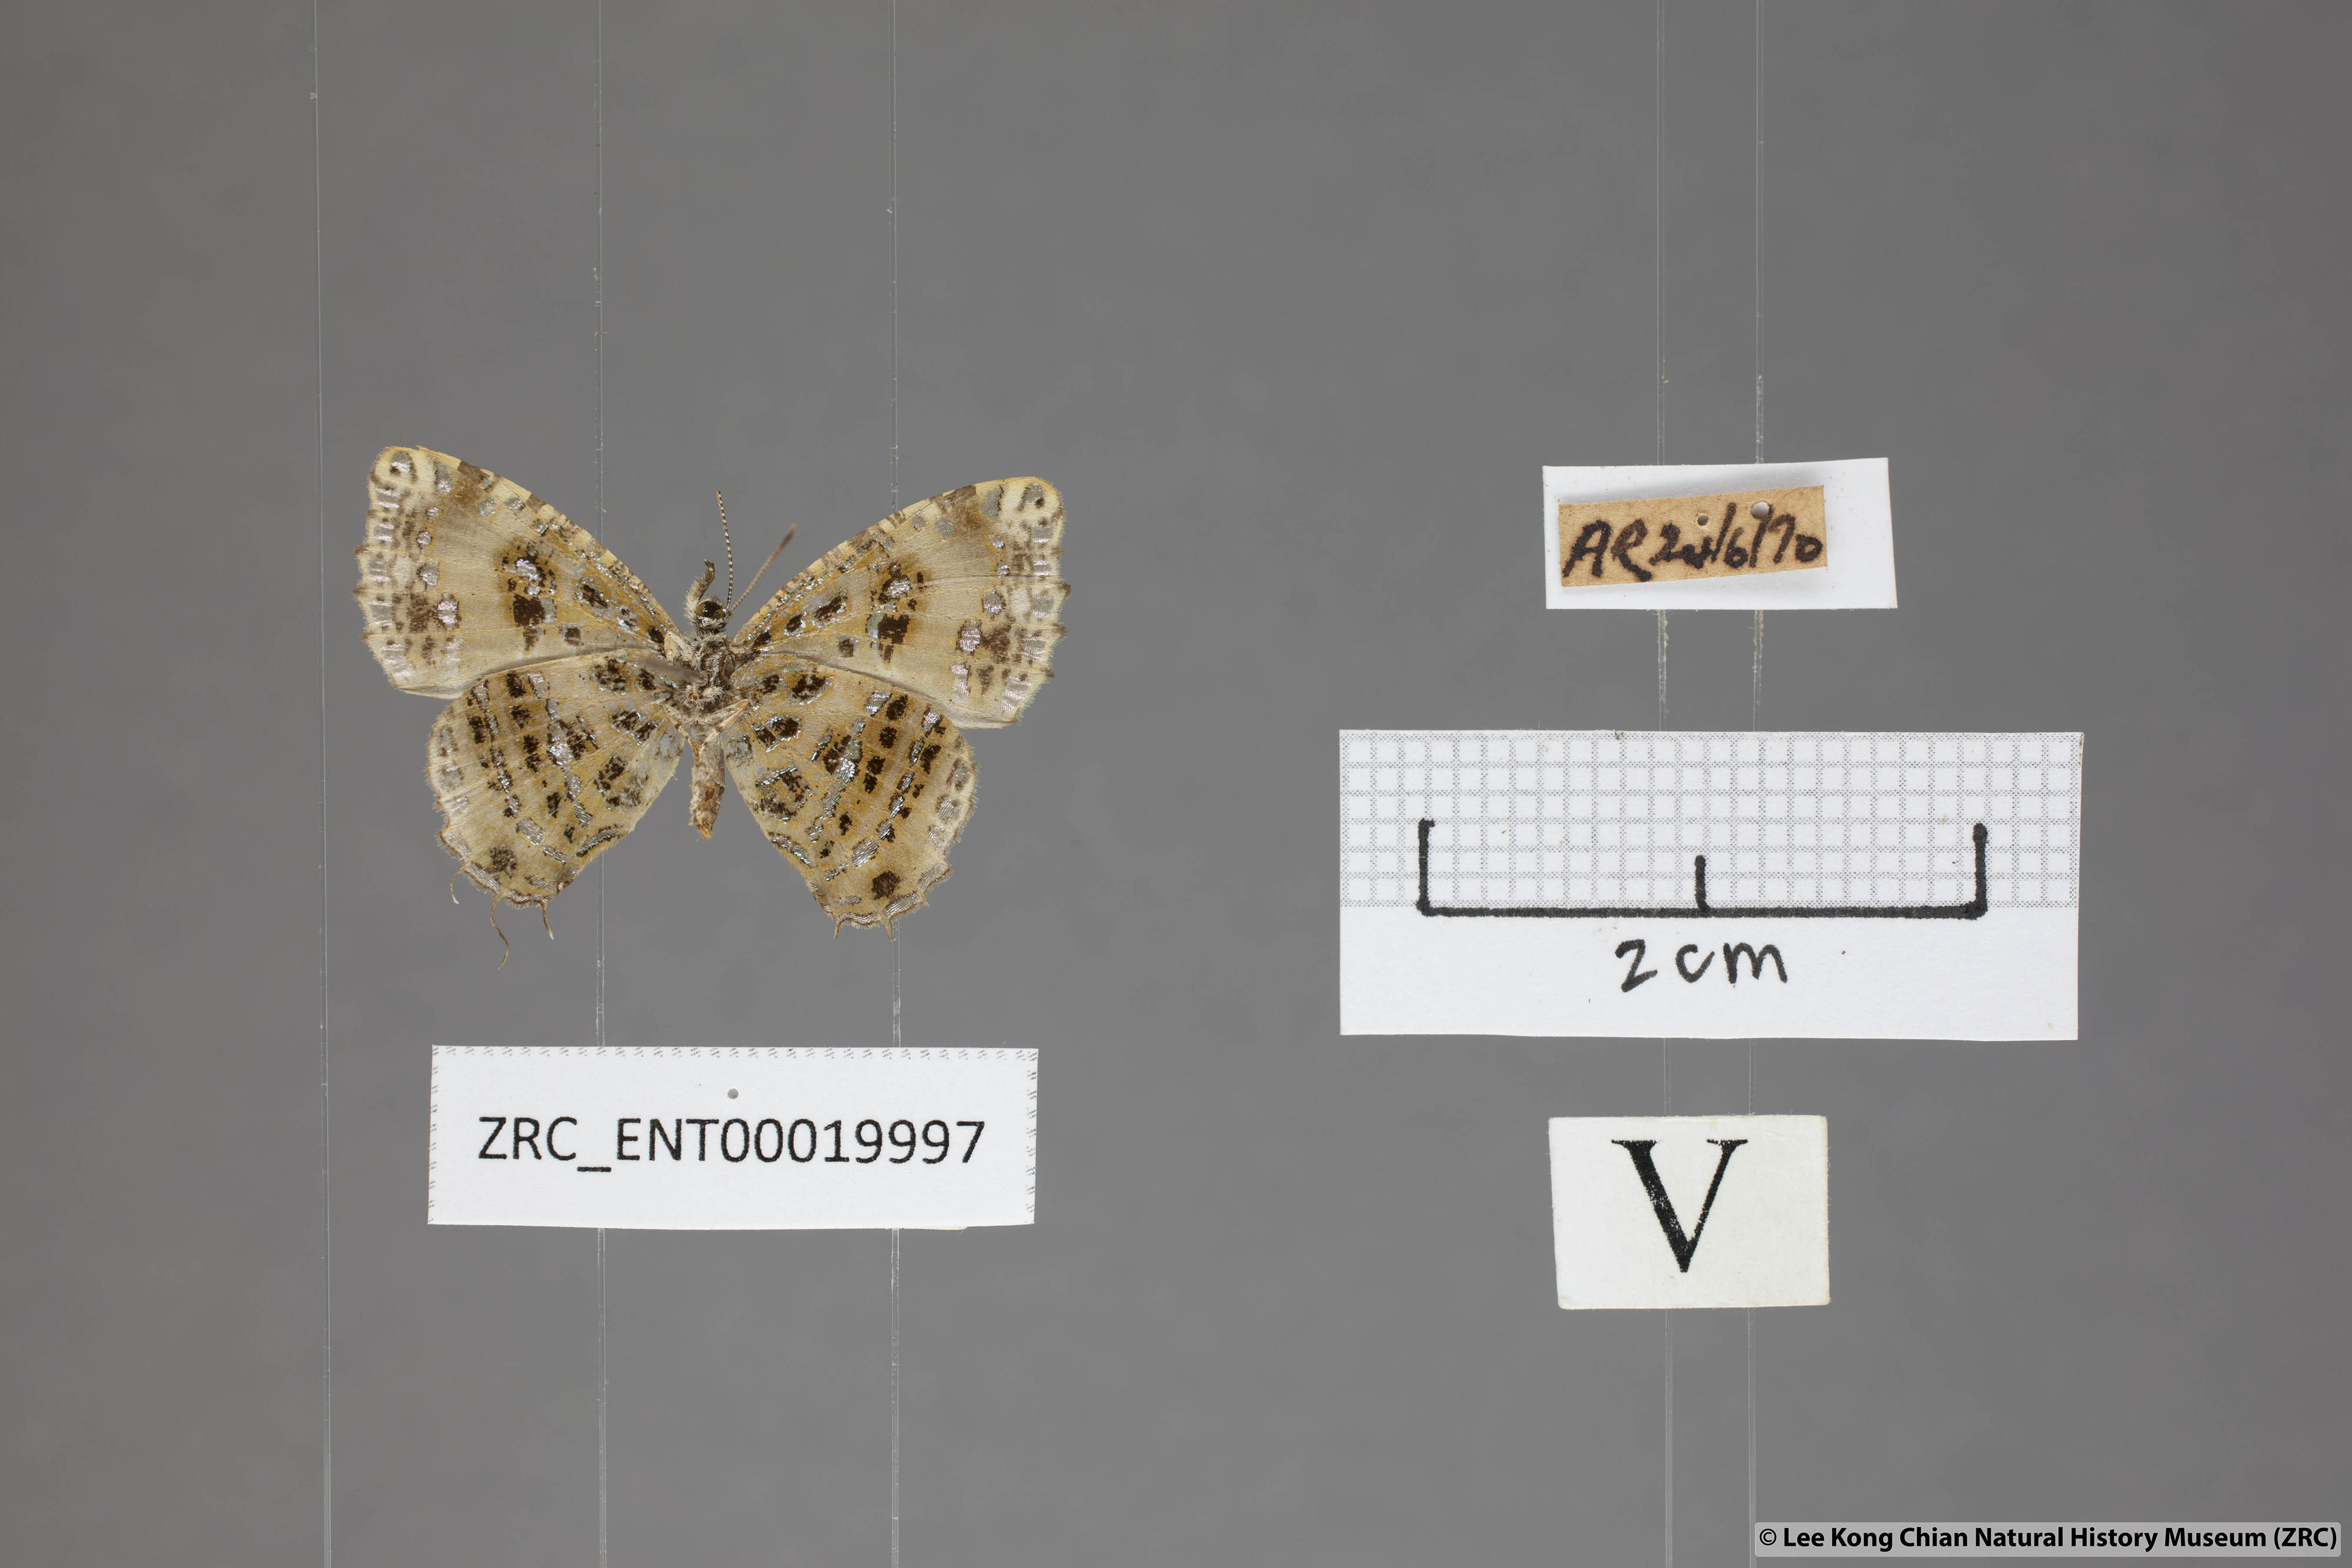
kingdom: Animalia
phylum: Arthropoda
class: Insecta
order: Lepidoptera
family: Lycaenidae
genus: Catapaecilma
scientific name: Catapaecilma elegans
